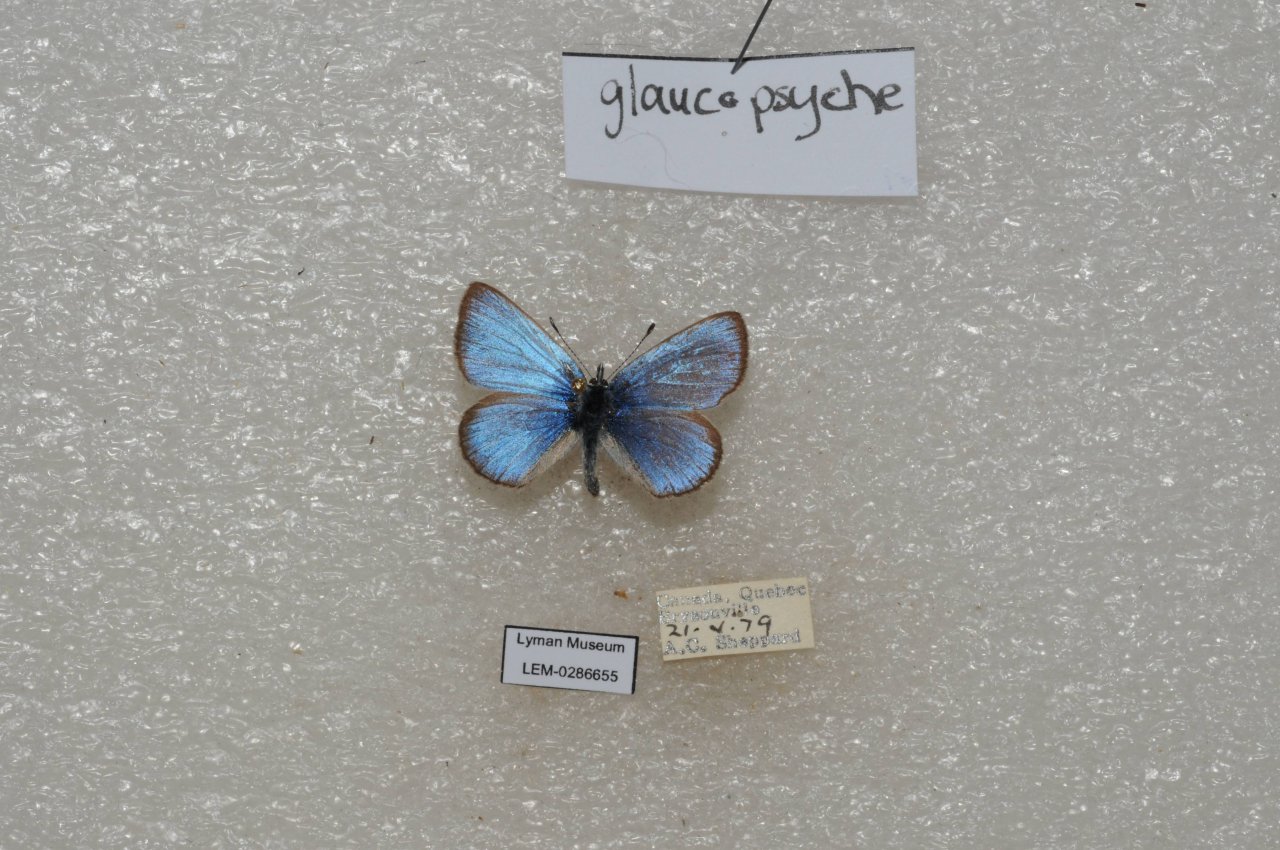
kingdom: Animalia
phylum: Arthropoda
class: Insecta
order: Lepidoptera
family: Lycaenidae
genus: Glaucopsyche
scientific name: Glaucopsyche lygdamus
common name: Silvery Blue
